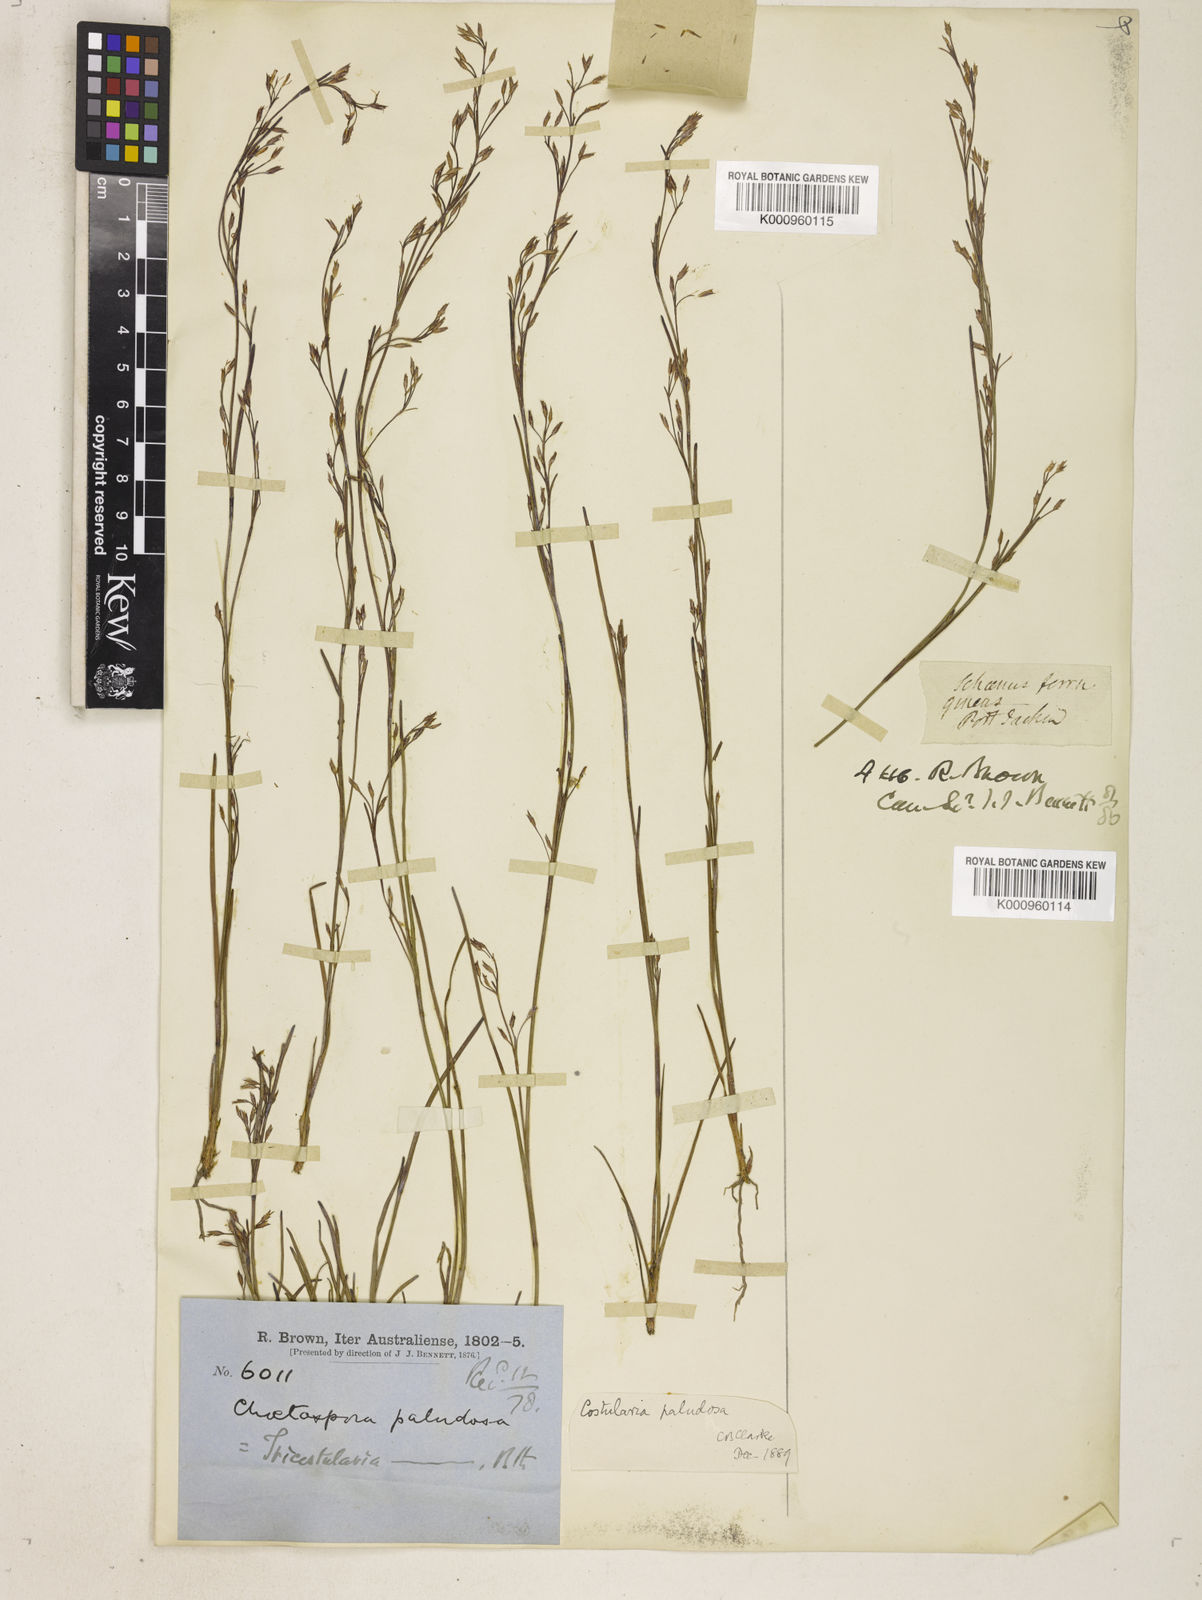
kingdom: Plantae
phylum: Tracheophyta
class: Liliopsida
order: Poales
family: Cyperaceae
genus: Anthelepis
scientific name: Anthelepis paludosa
